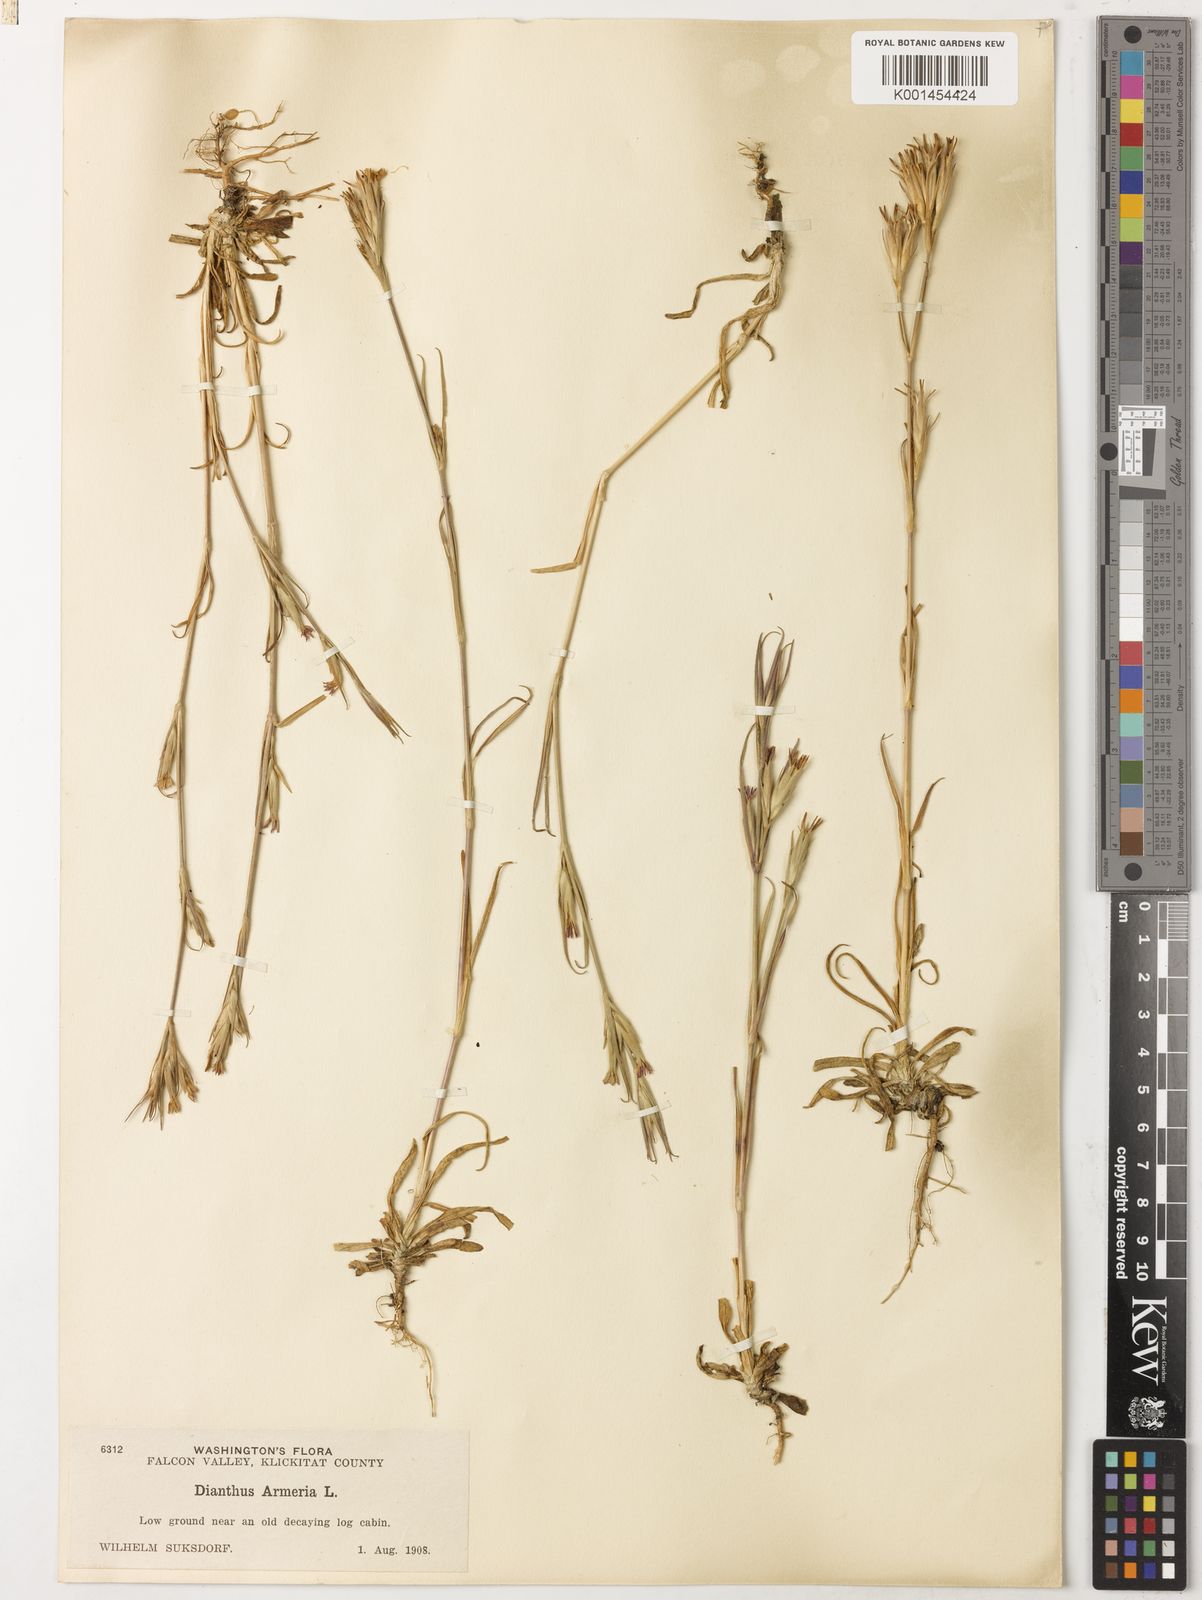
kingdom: Plantae
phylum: Tracheophyta
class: Magnoliopsida
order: Caryophyllales
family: Caryophyllaceae
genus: Dianthus
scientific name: Dianthus armeria
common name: Deptford pink
